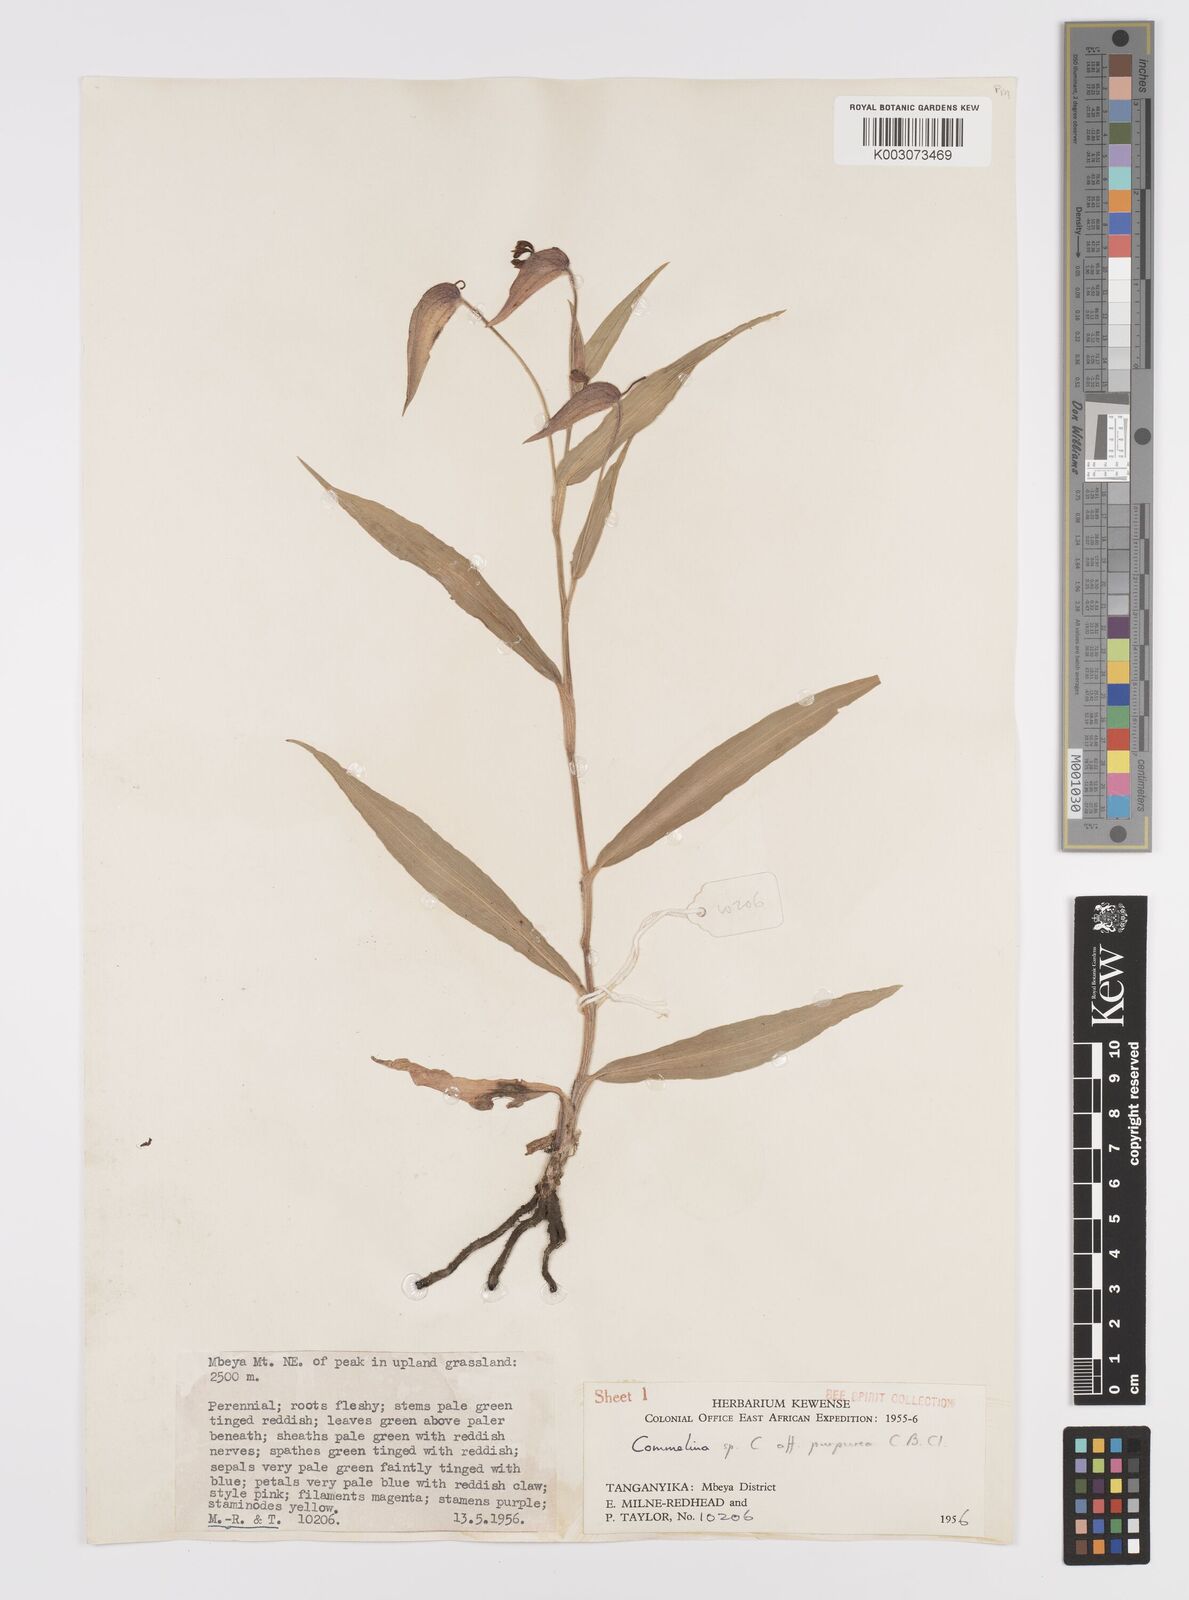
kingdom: Plantae
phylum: Tracheophyta
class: Liliopsida
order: Commelinales
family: Commelinaceae
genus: Commelina
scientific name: Commelina kituloensis
